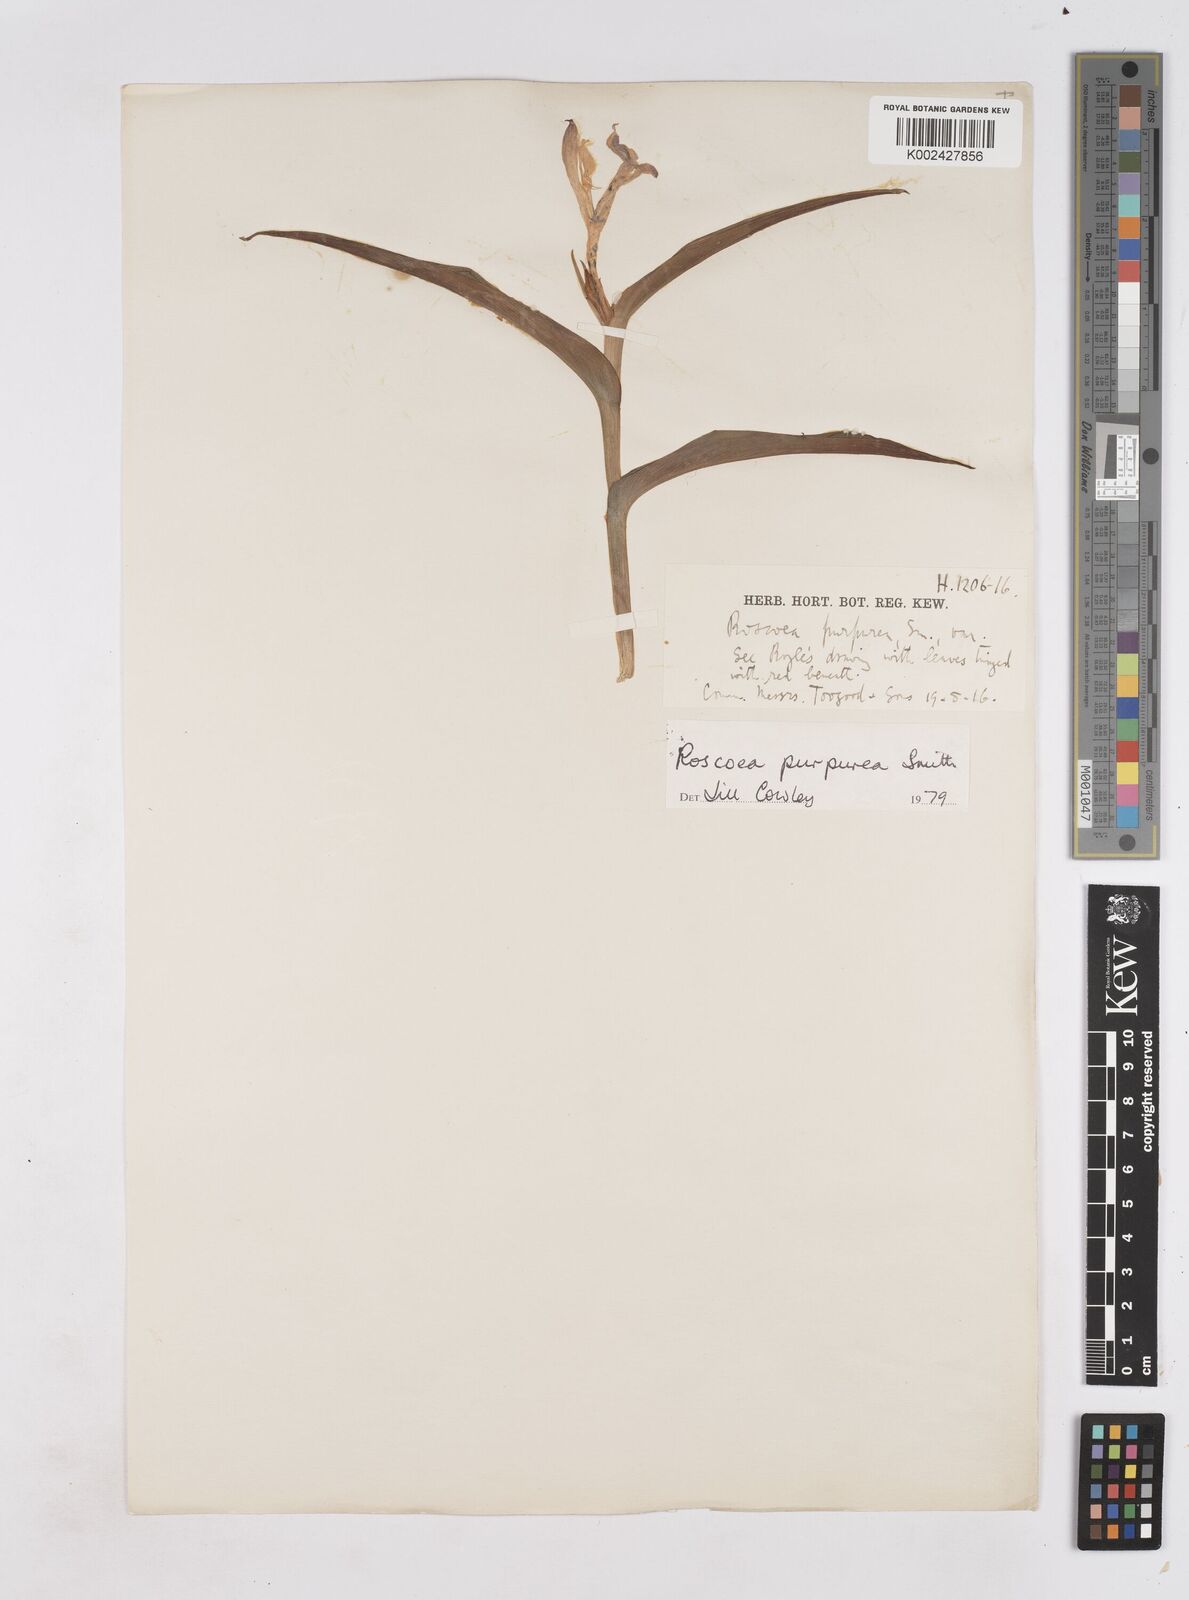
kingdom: Plantae
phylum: Tracheophyta
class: Liliopsida
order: Zingiberales
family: Zingiberaceae
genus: Roscoea
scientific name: Roscoea purpurea
